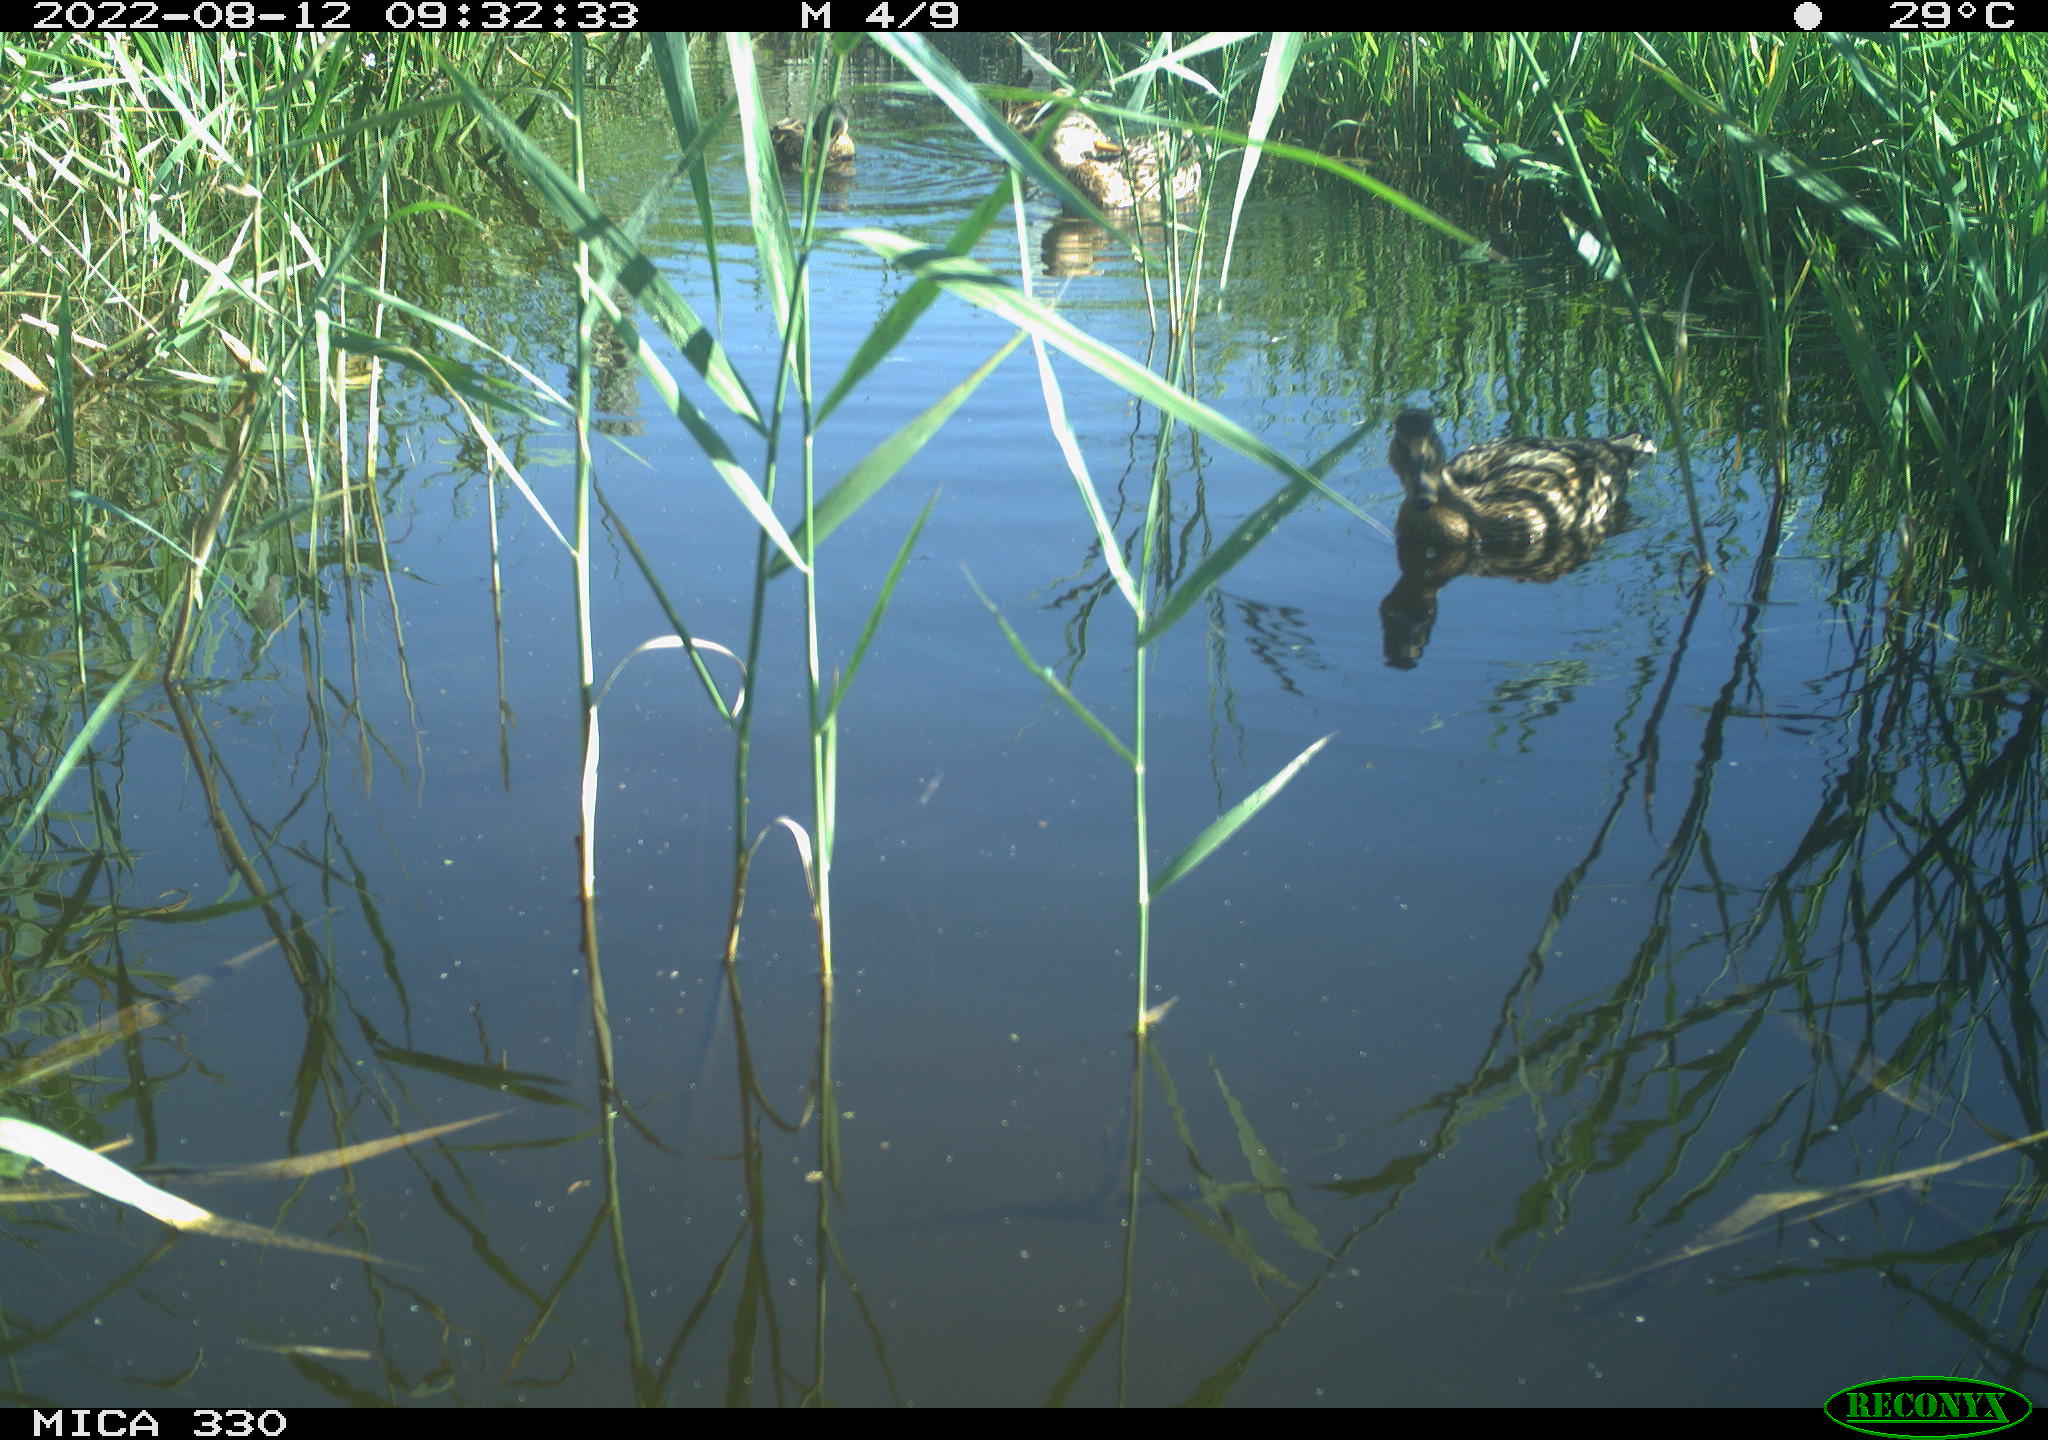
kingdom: Animalia
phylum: Chordata
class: Aves
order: Anseriformes
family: Anatidae
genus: Anas
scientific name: Anas platyrhynchos
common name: Mallard
